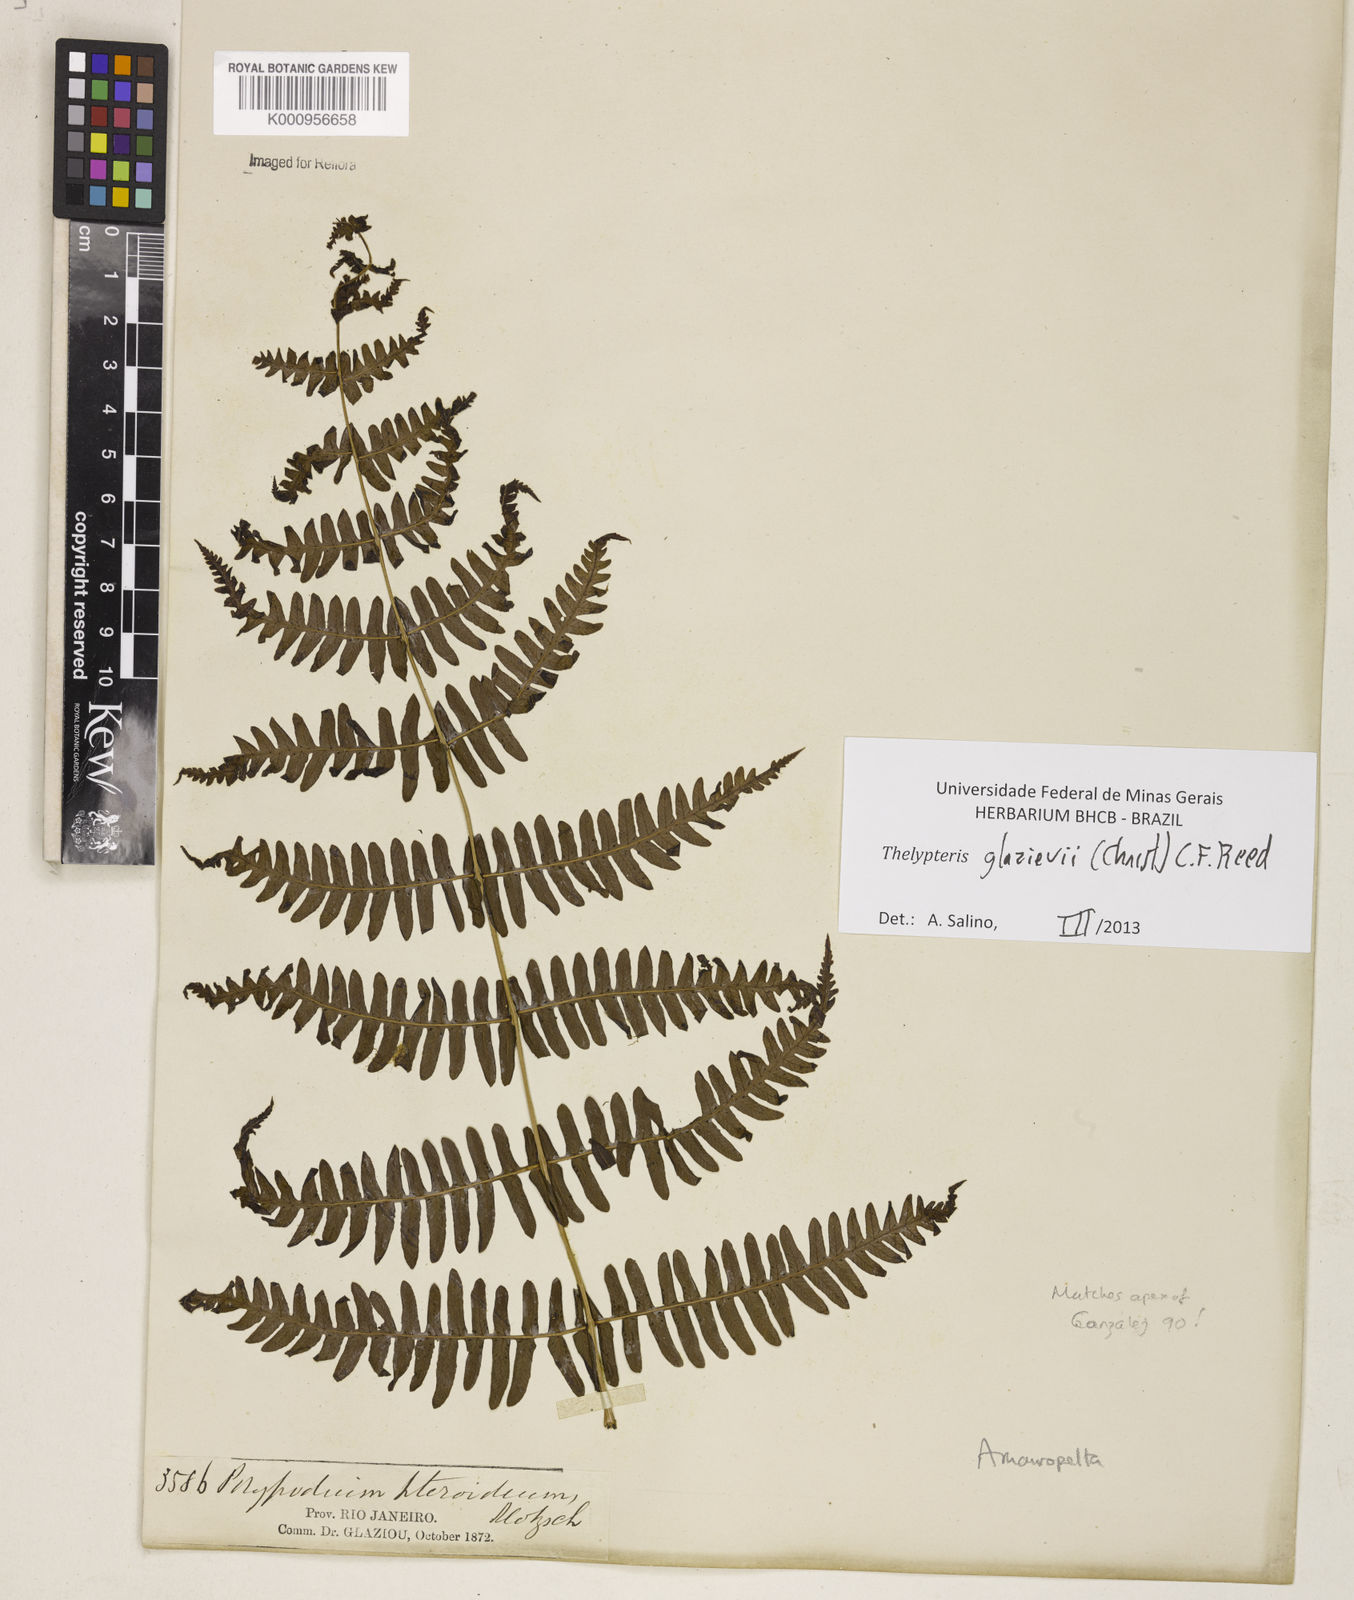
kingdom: Plantae
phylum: Tracheophyta
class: Polypodiopsida
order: Polypodiales
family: Thelypteridaceae
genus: Amauropelta
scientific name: Amauropelta
